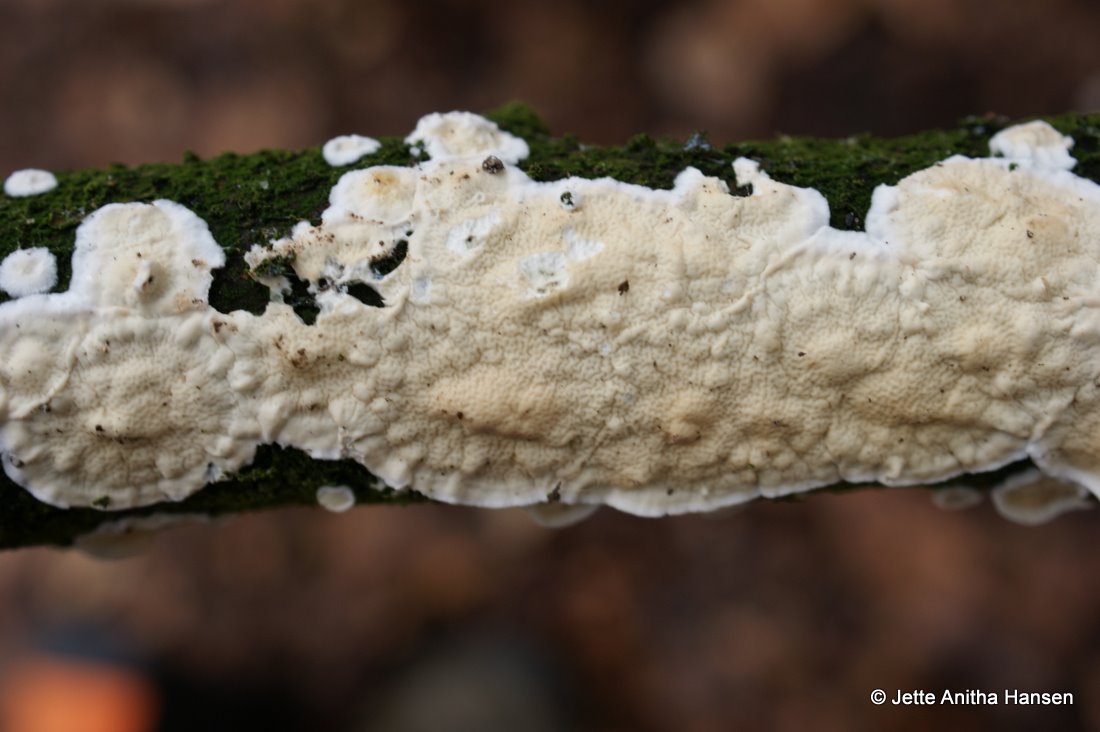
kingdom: Fungi
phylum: Basidiomycota
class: Agaricomycetes
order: Polyporales
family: Irpicaceae
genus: Byssomerulius
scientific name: Byssomerulius corium
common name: læder-åresvamp
